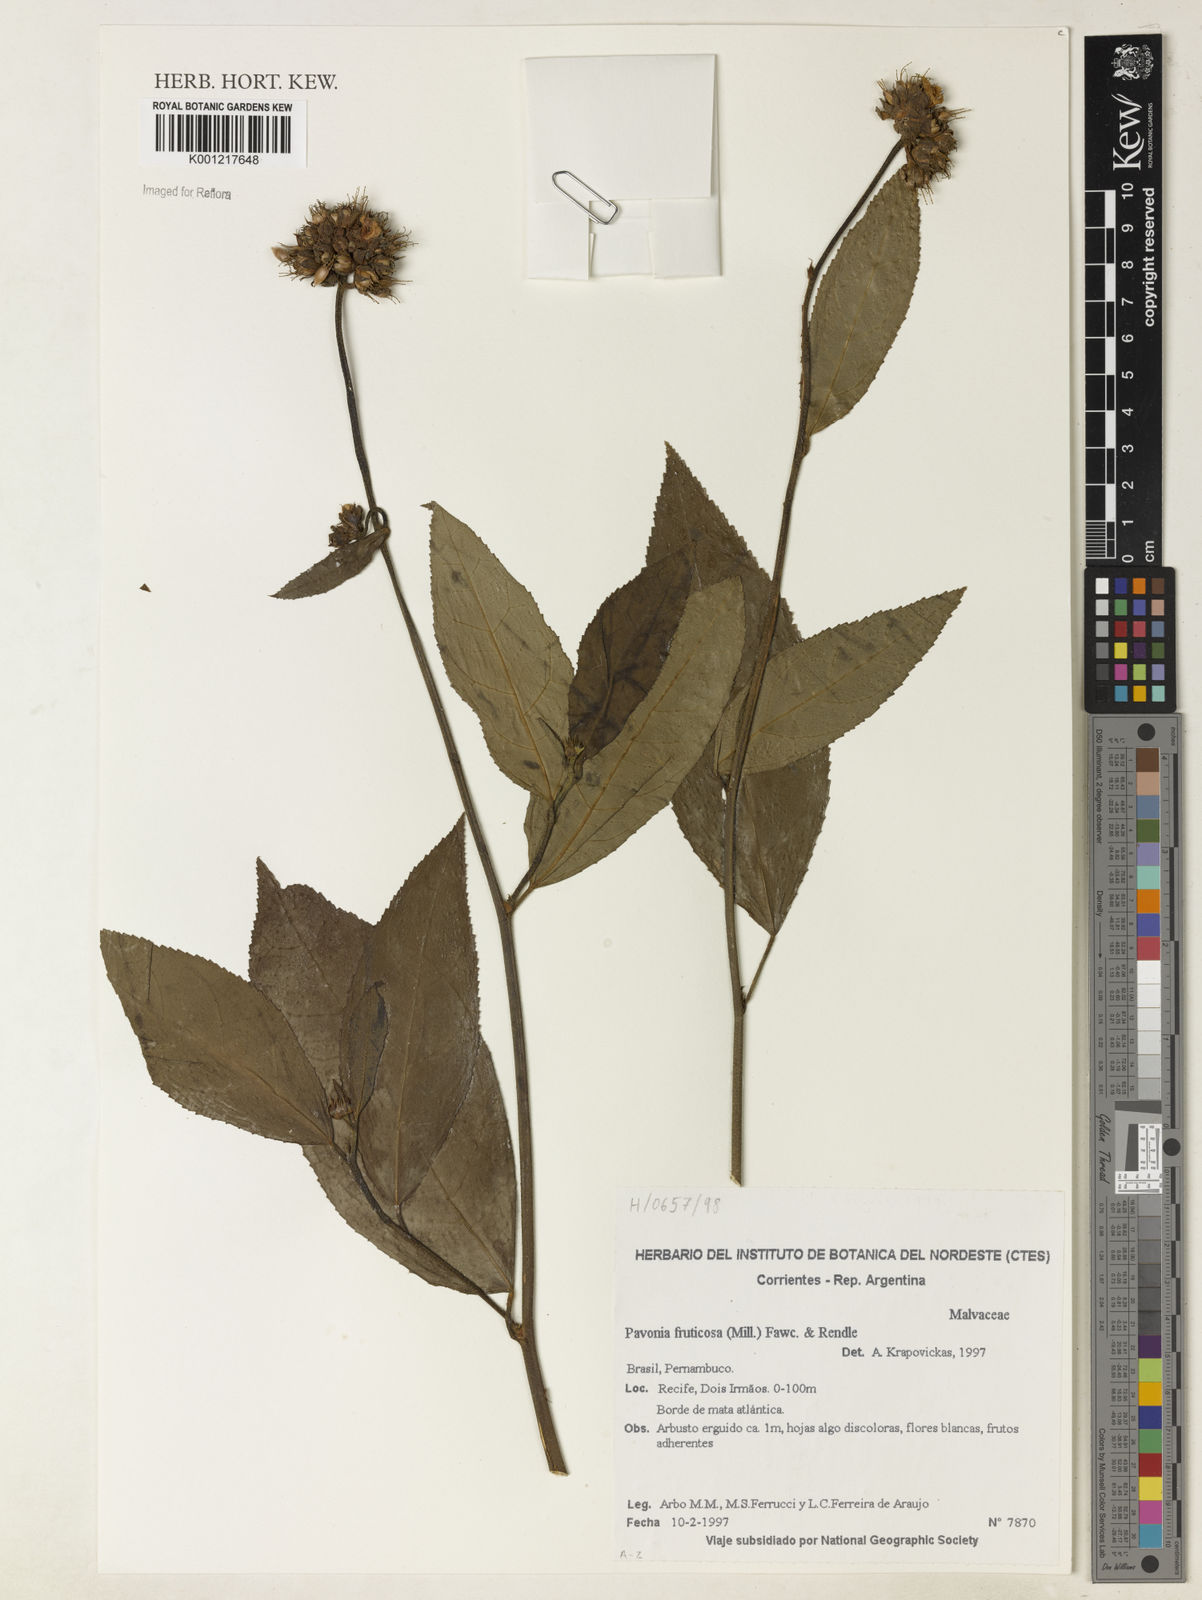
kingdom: Plantae
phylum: Tracheophyta
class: Magnoliopsida
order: Malvales
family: Malvaceae
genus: Pavonia
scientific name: Pavonia castaneifolia
